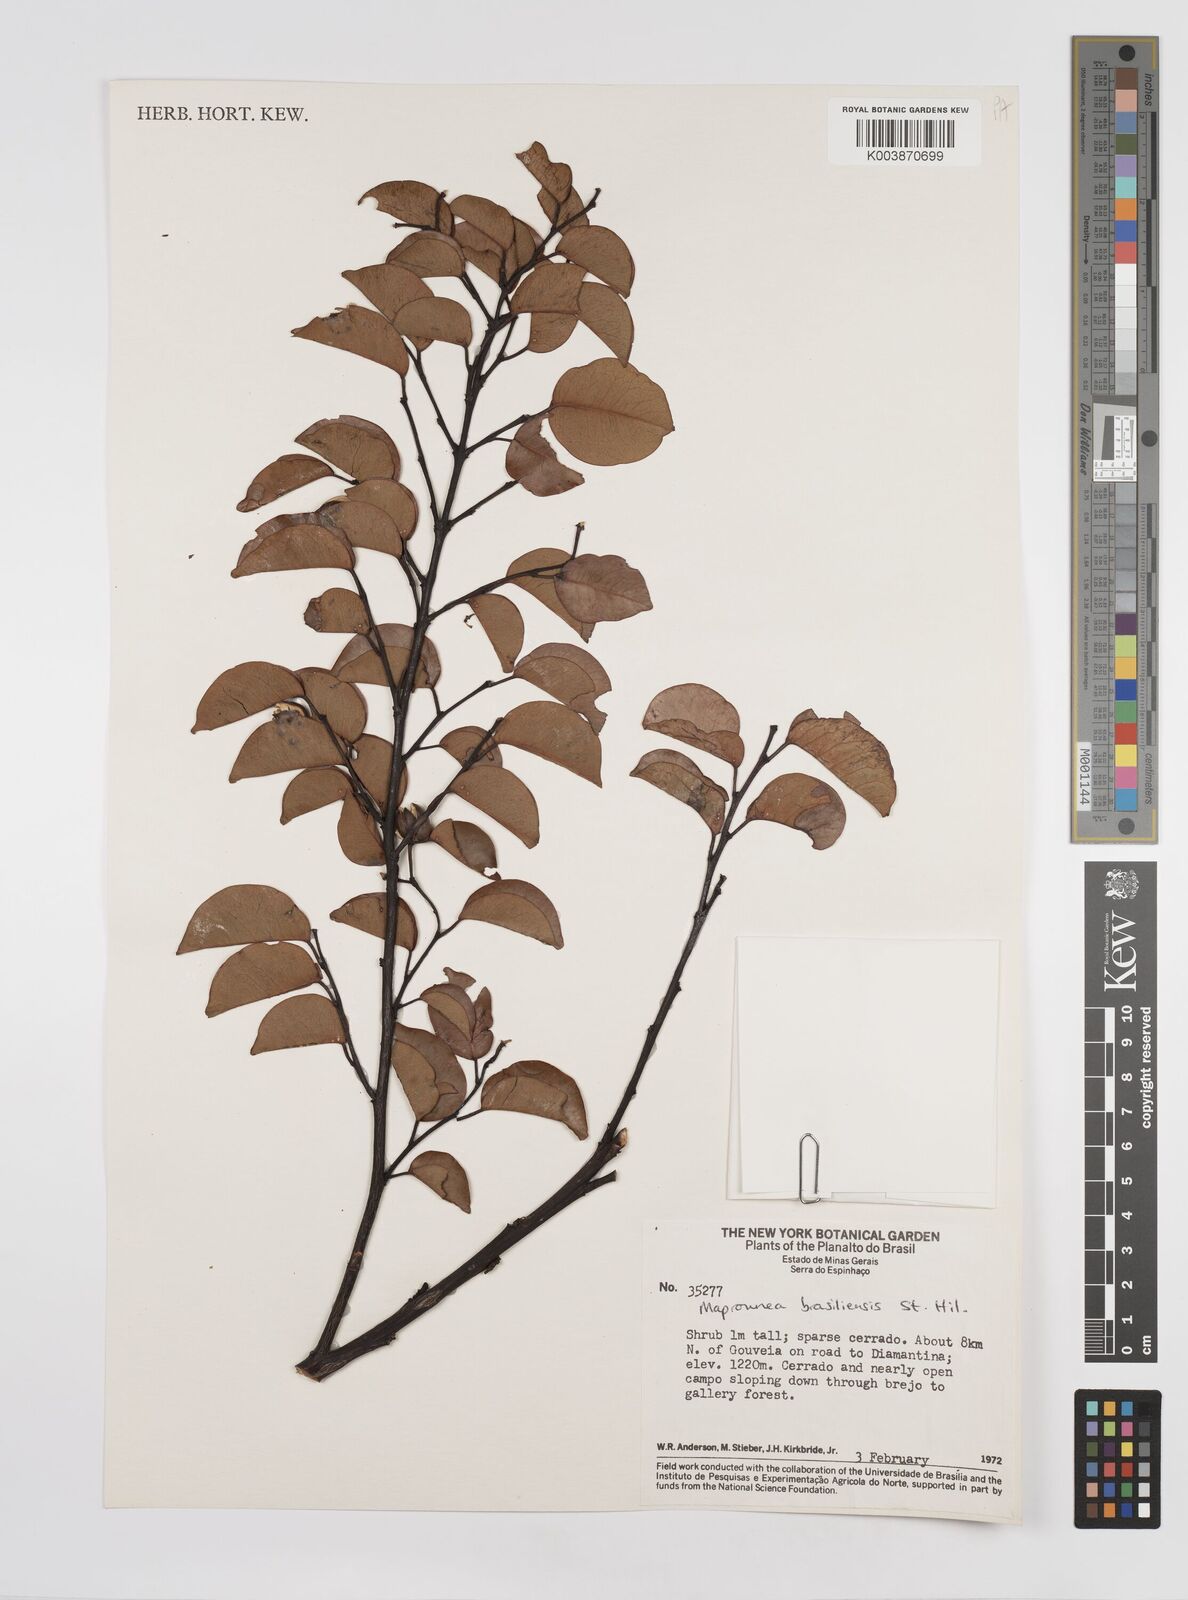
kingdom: Plantae
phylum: Tracheophyta
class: Magnoliopsida
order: Malpighiales
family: Euphorbiaceae
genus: Maprounea
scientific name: Maprounea brasiliensis
